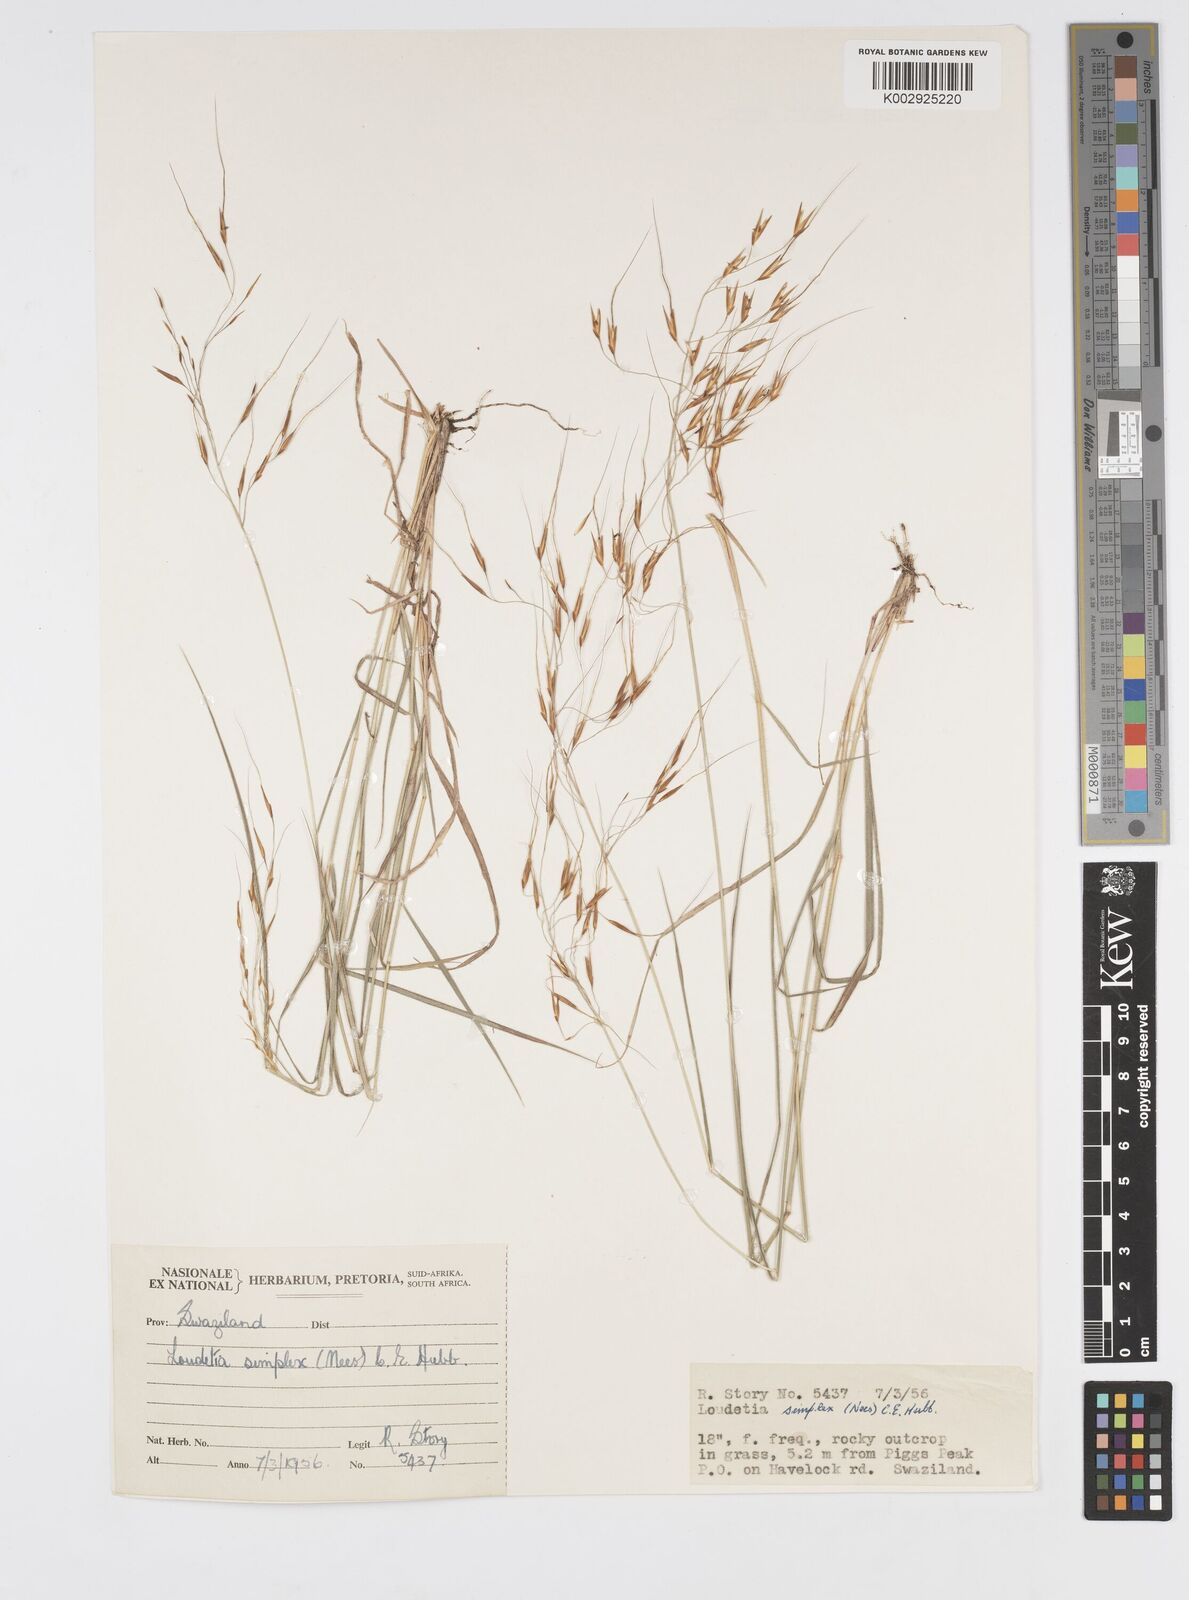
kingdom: Plantae
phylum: Tracheophyta
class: Liliopsida
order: Poales
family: Poaceae
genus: Loudetia
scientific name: Loudetia simplex
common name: Common russet grass
